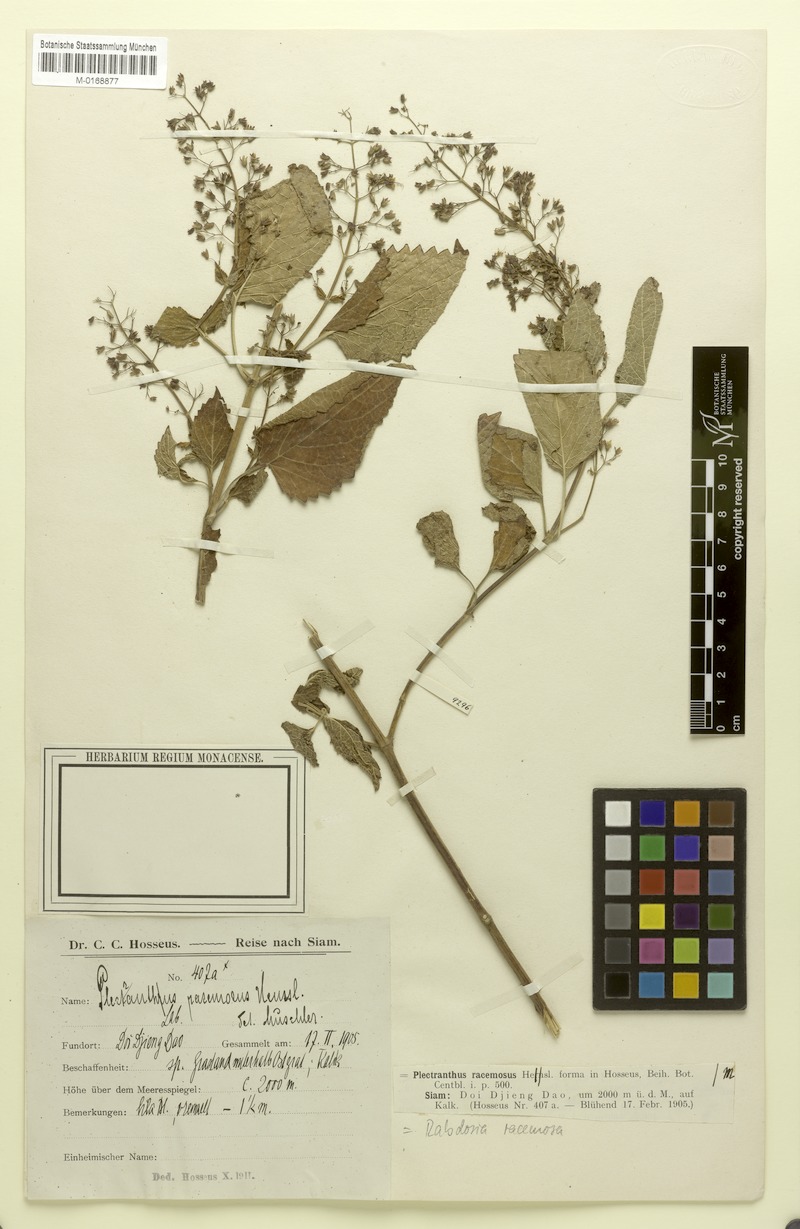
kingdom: Plantae
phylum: Tracheophyta
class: Magnoliopsida
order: Lamiales
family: Lamiaceae
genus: Isodon
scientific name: Isodon coetsa
